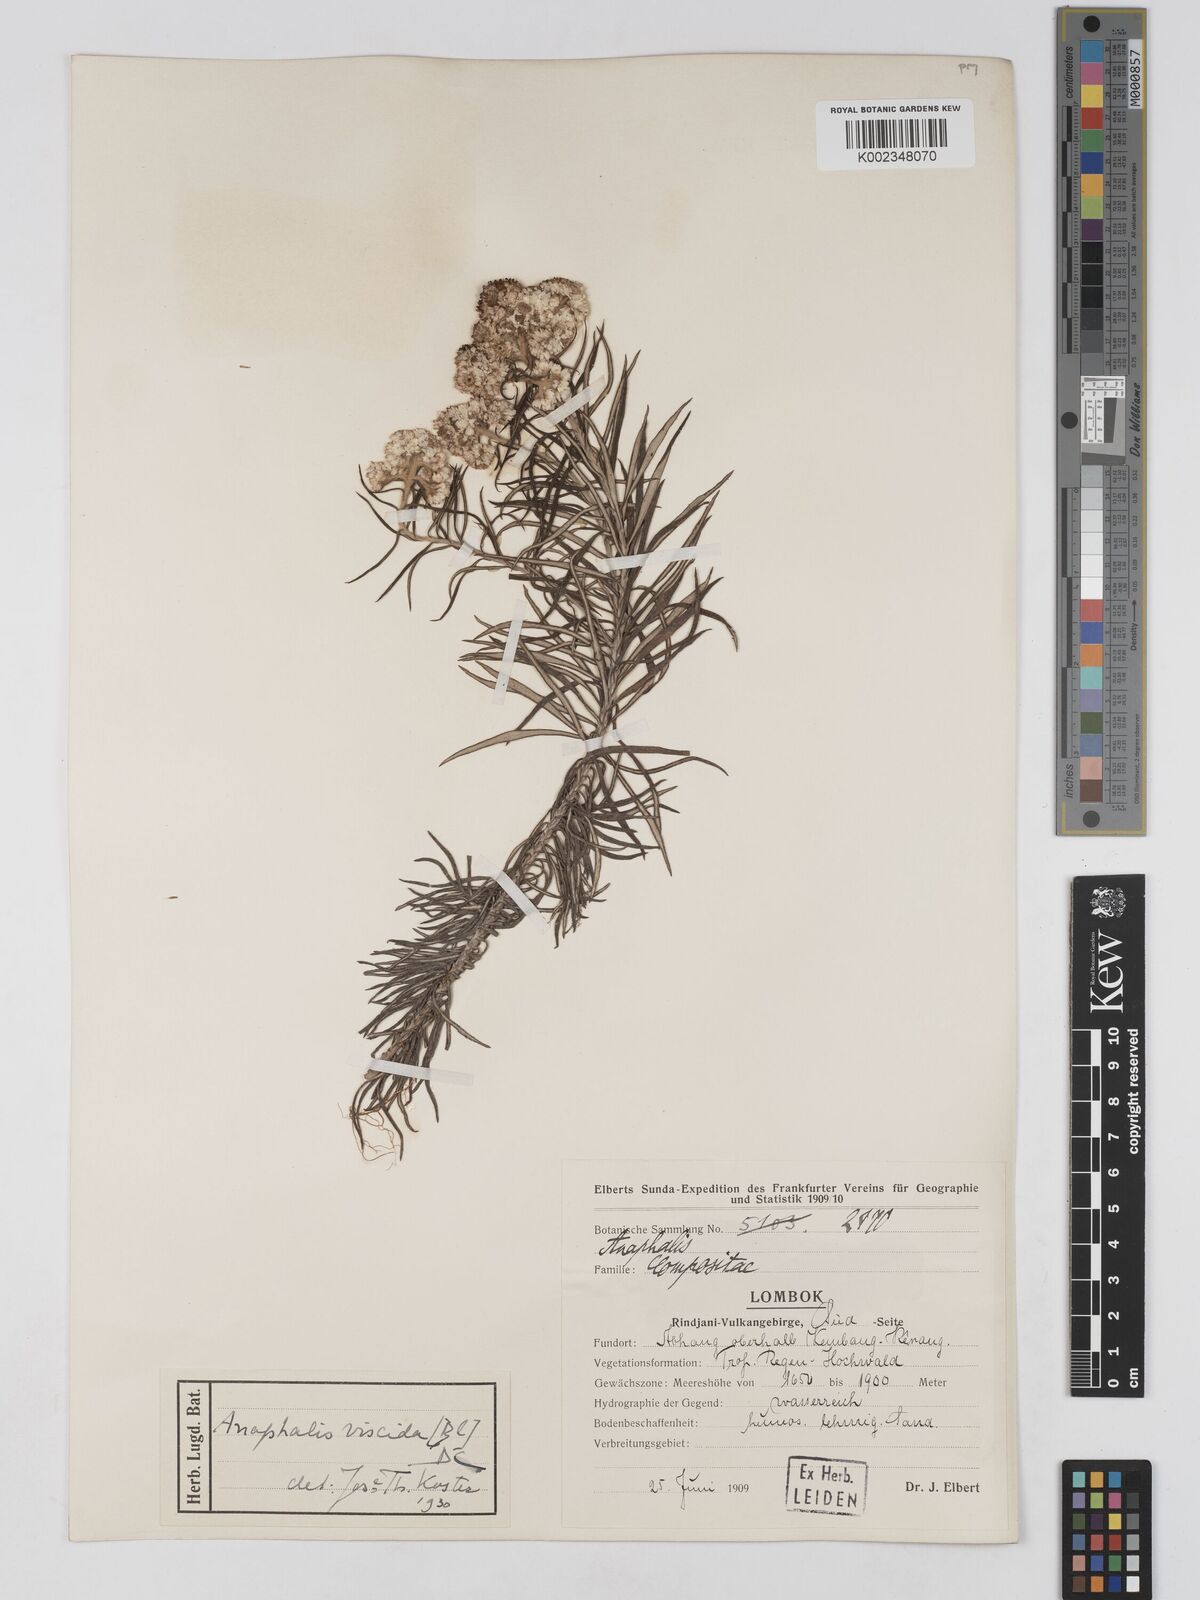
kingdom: Plantae
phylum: Tracheophyta
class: Magnoliopsida
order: Asterales
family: Asteraceae
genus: Anaphalis
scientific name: Anaphalis viscida
